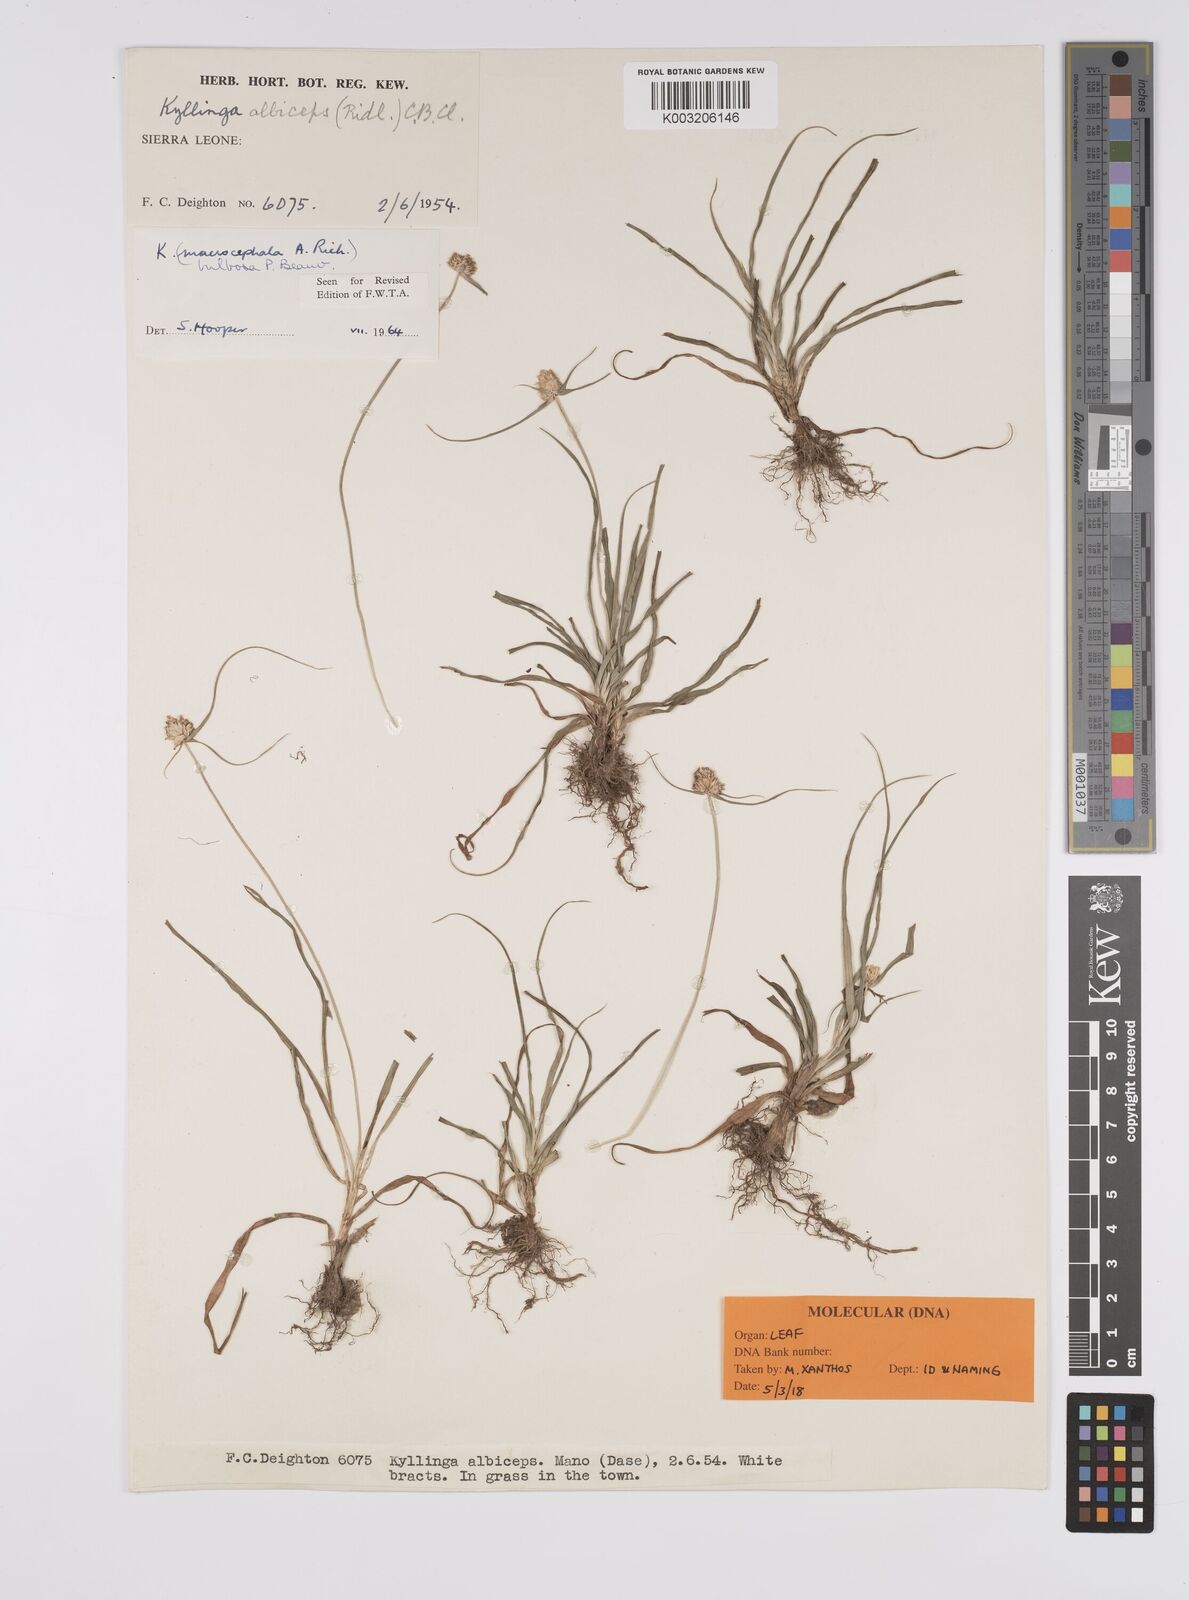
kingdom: Plantae
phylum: Tracheophyta
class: Liliopsida
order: Poales
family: Cyperaceae
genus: Cyperus
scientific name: Cyperus
